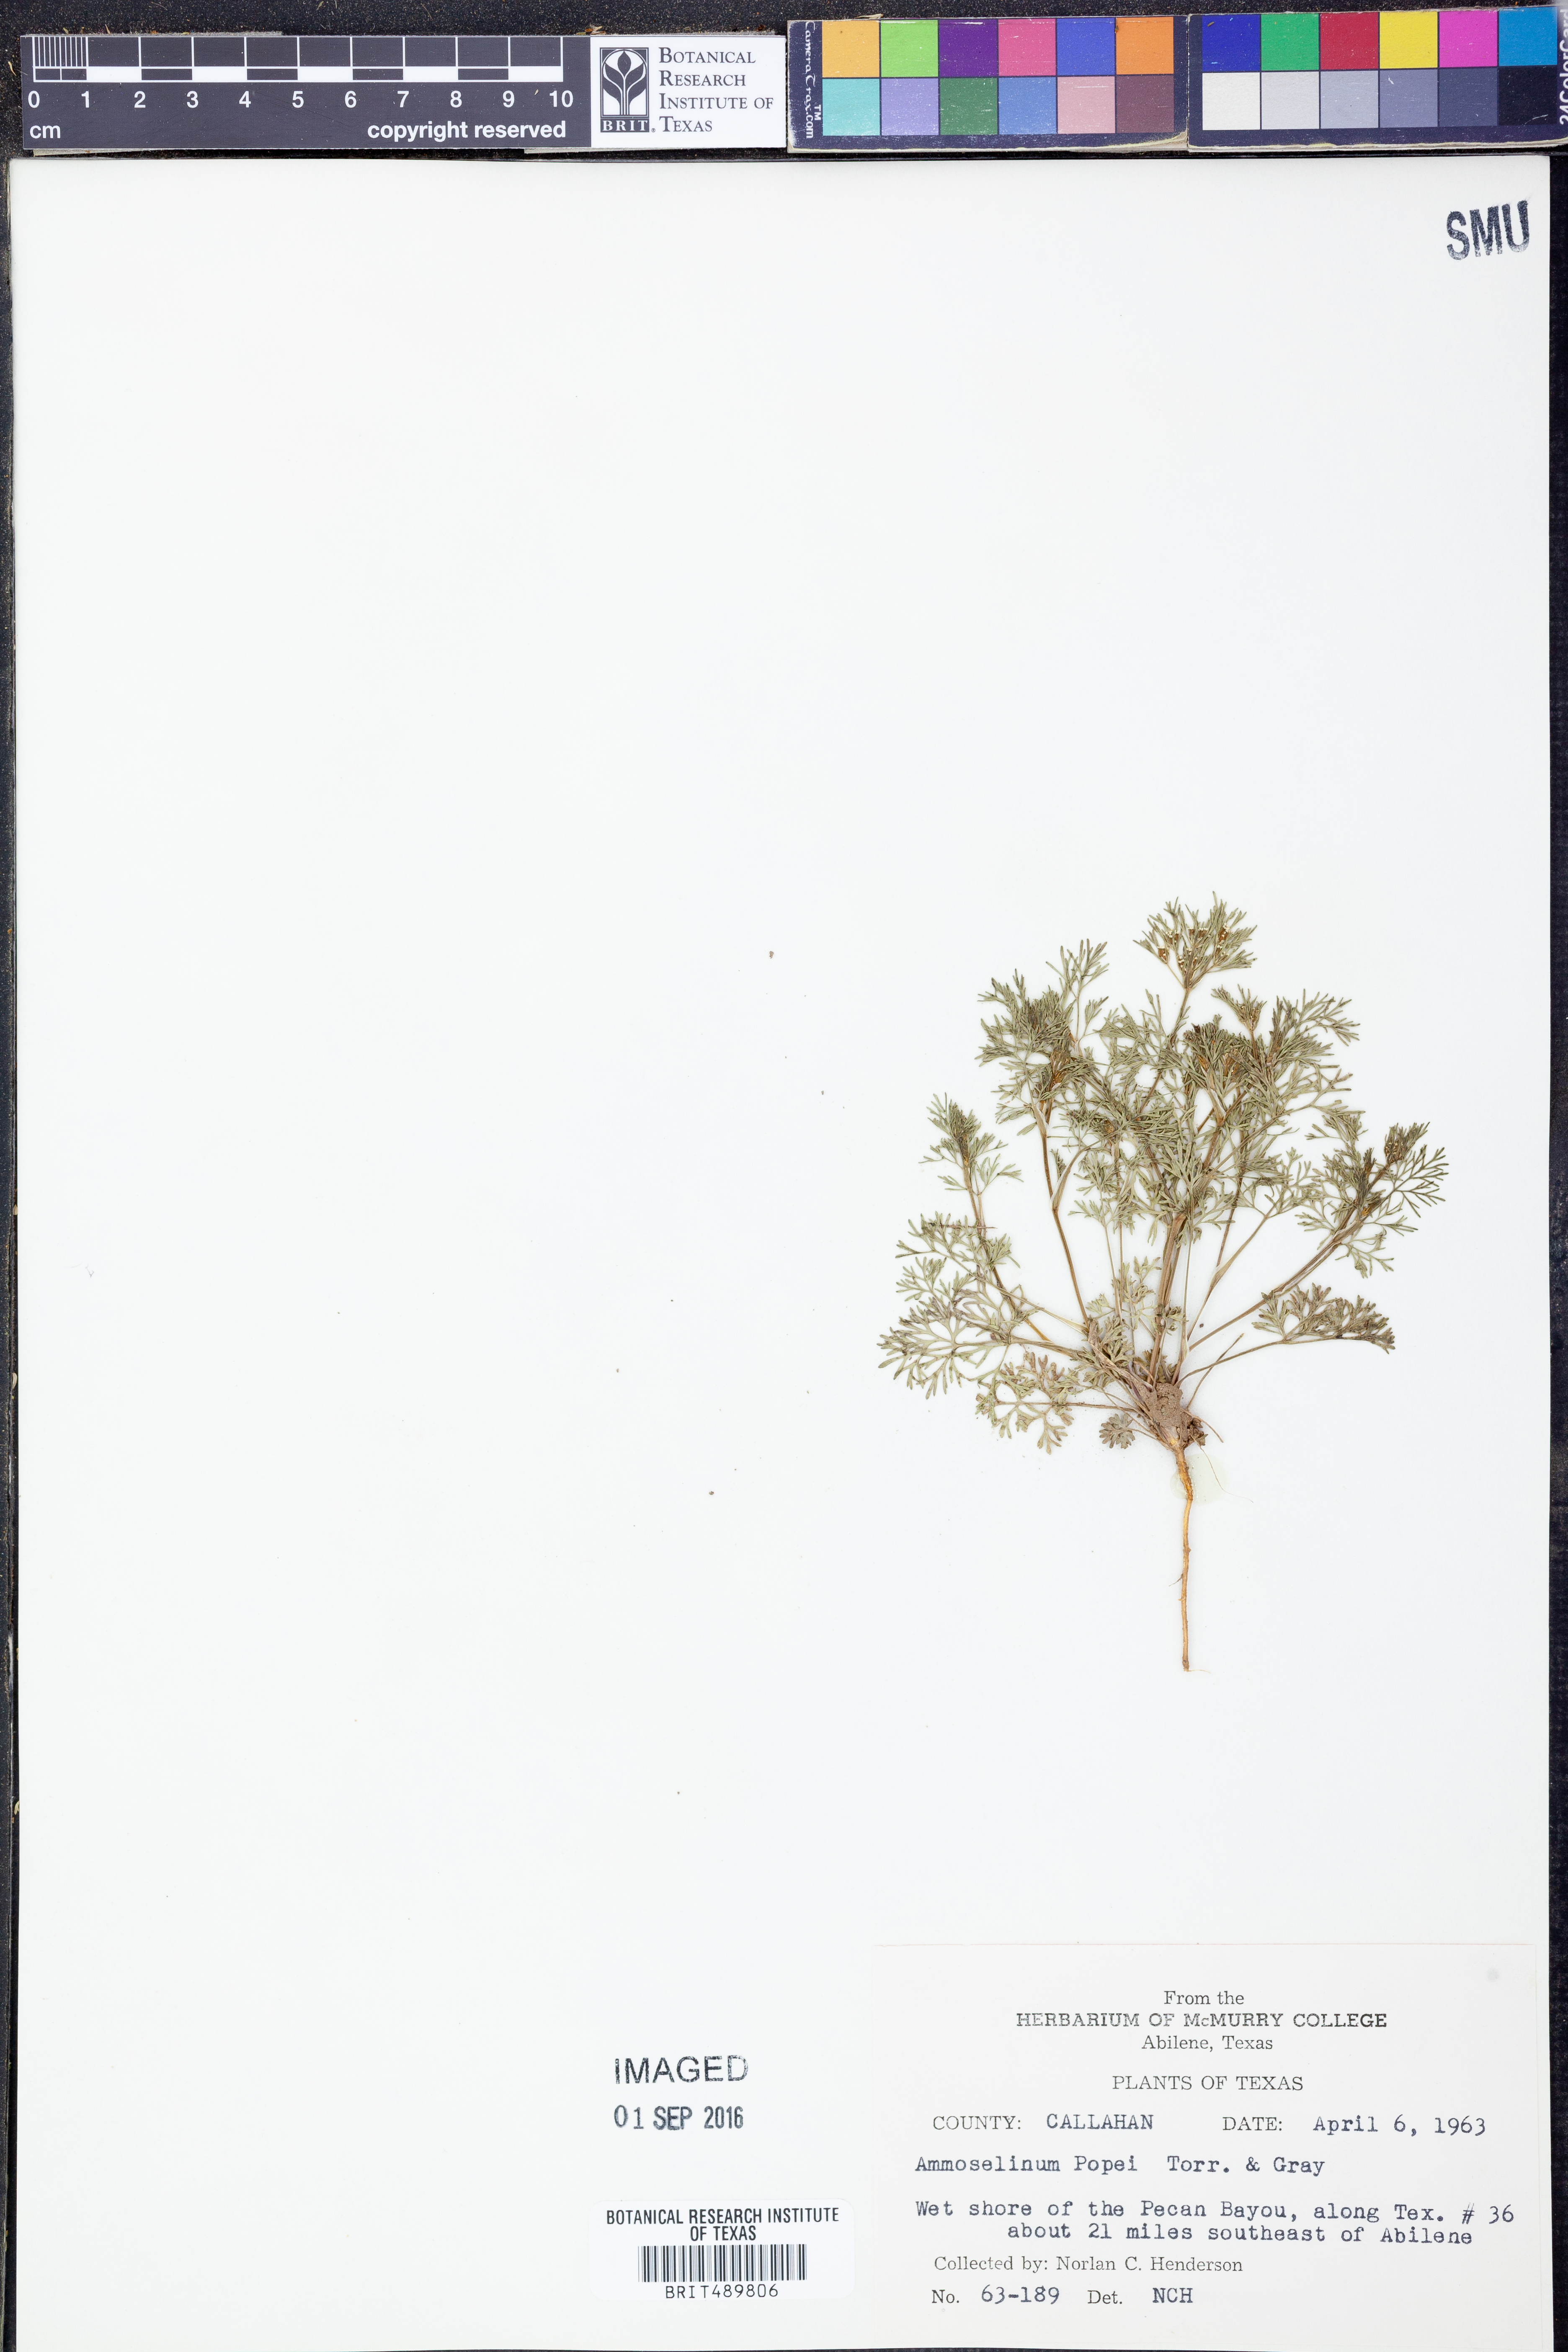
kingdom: Plantae
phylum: Tracheophyta
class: Magnoliopsida
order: Apiales
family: Apiaceae
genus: Ammoselinum
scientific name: Ammoselinum popei
